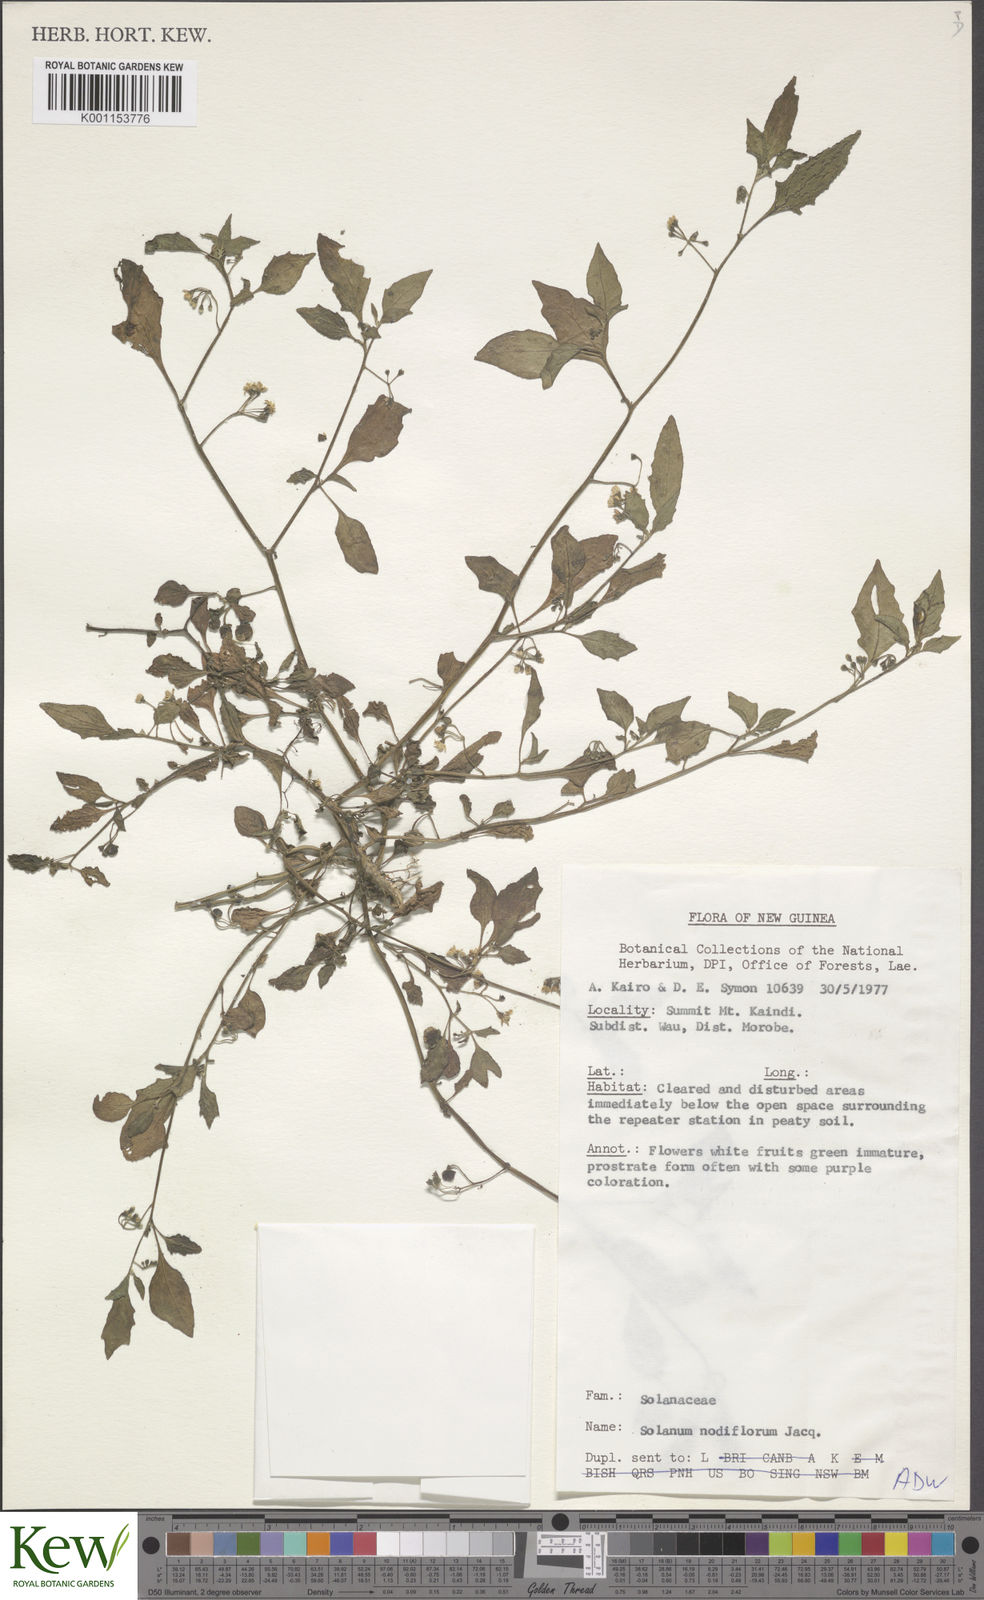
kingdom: Plantae
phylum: Tracheophyta
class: Magnoliopsida
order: Solanales
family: Solanaceae
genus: Solanum
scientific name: Solanum americanum
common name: American black nightshade
